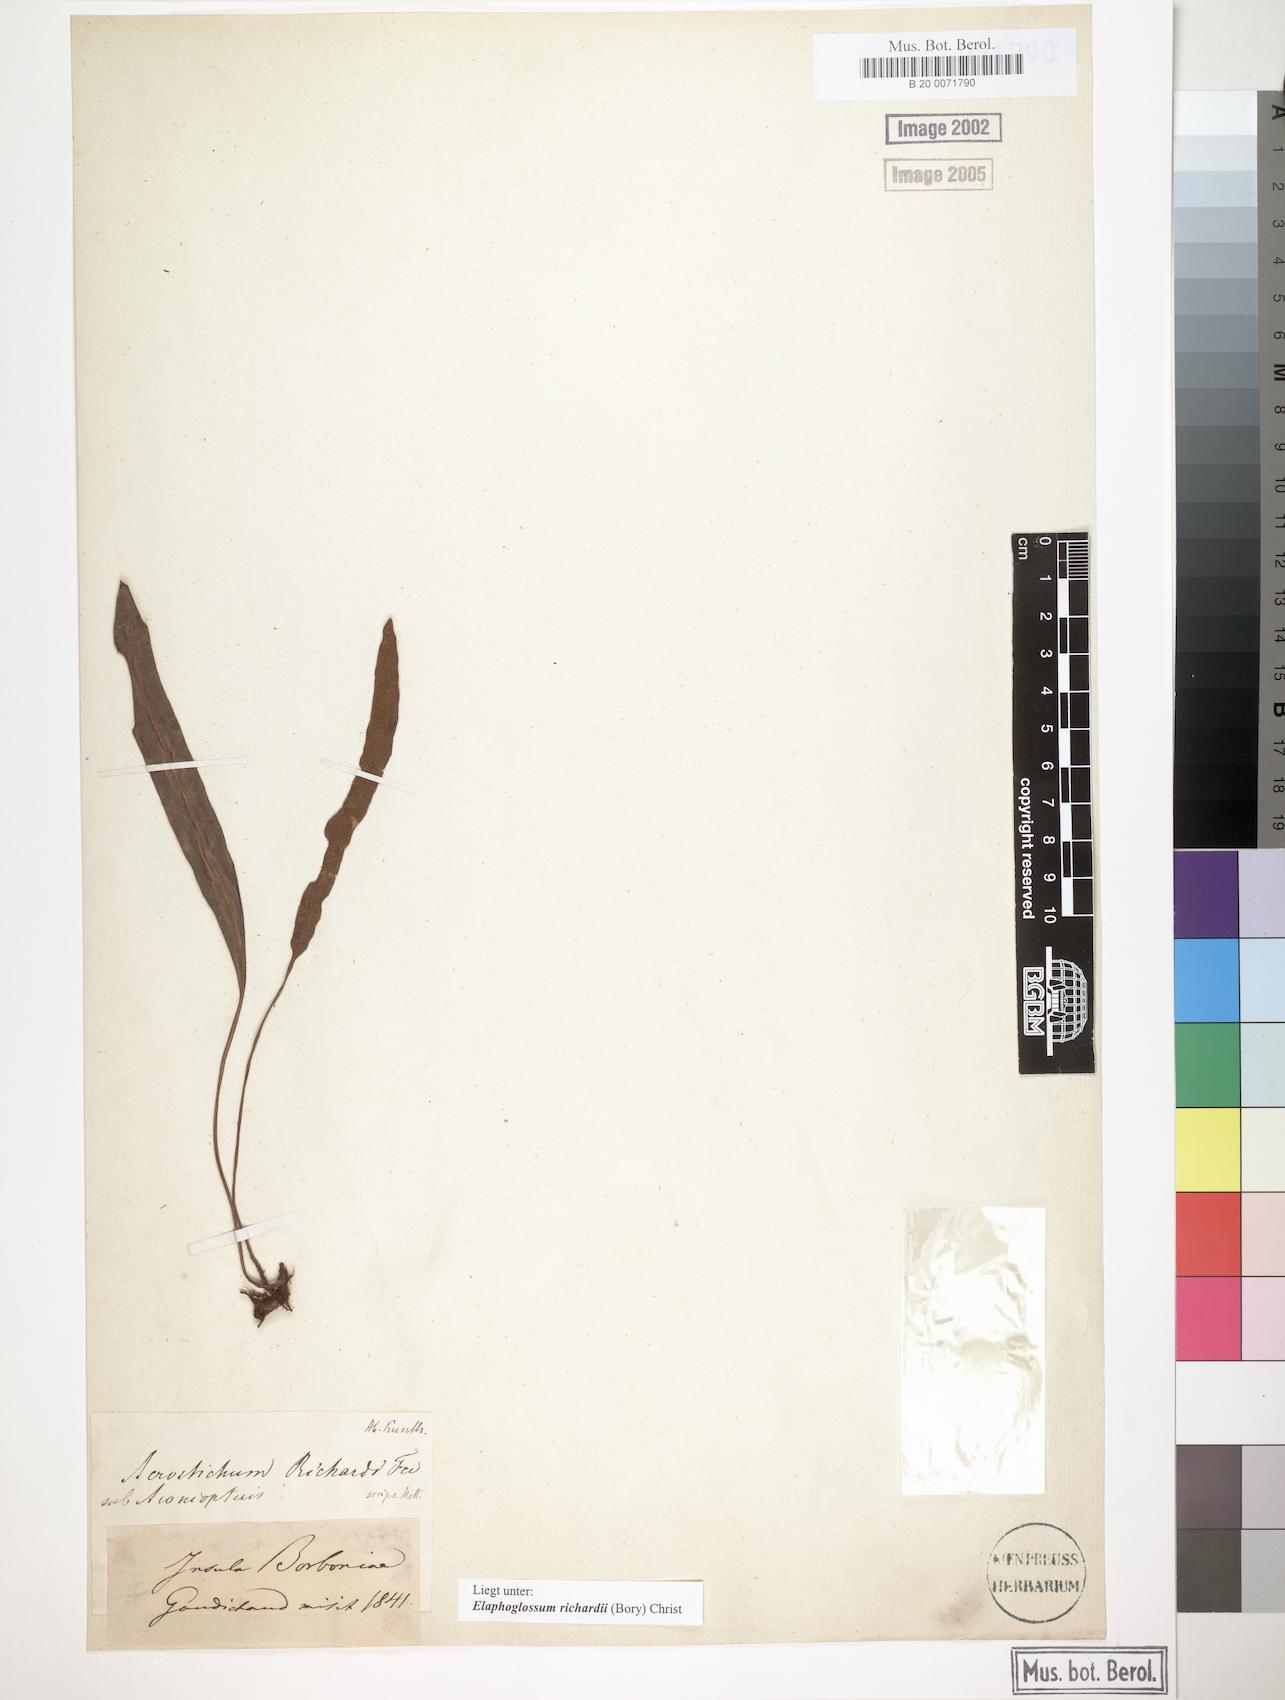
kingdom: Plantae
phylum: Tracheophyta
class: Polypodiopsida
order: Polypodiales
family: Dryopteridaceae
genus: Elaphoglossum
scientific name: Elaphoglossum richardii
